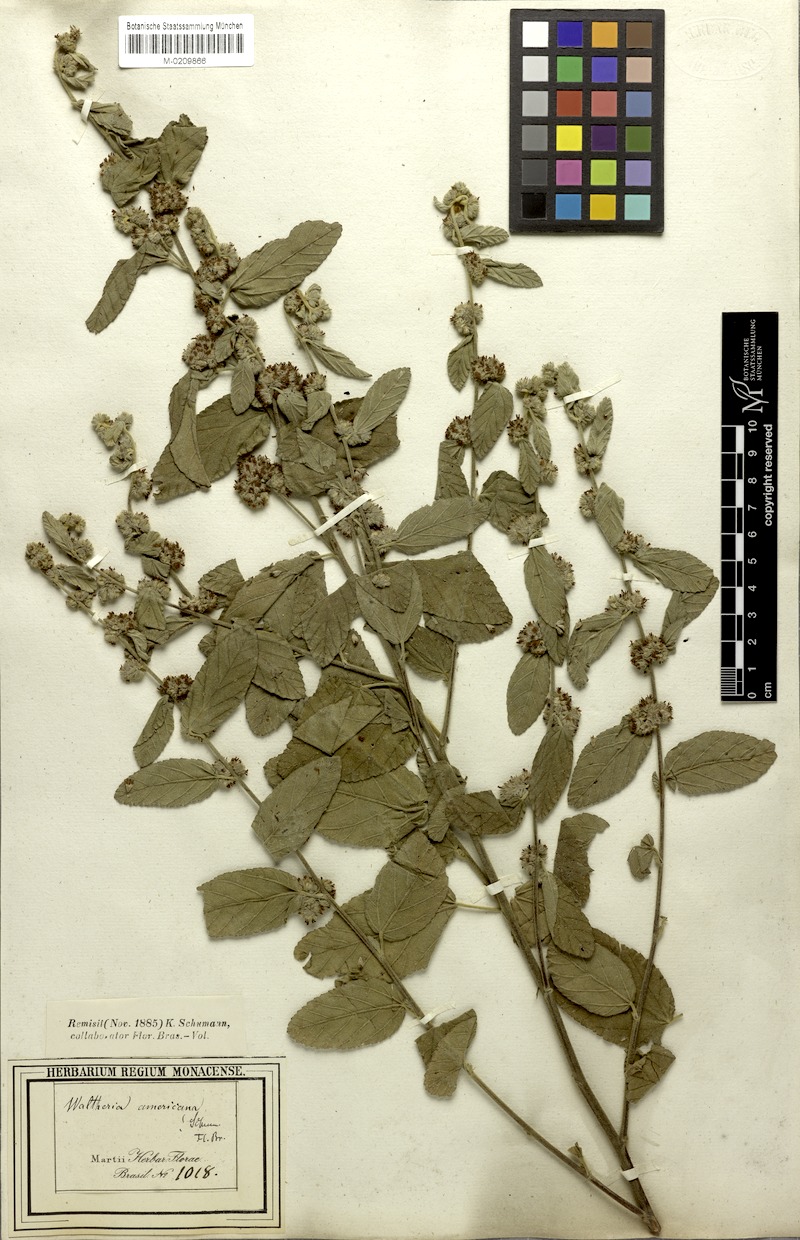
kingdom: Plantae
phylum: Tracheophyta
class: Magnoliopsida
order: Malvales
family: Malvaceae
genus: Waltheria
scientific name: Waltheria indica
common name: Leather-coat
